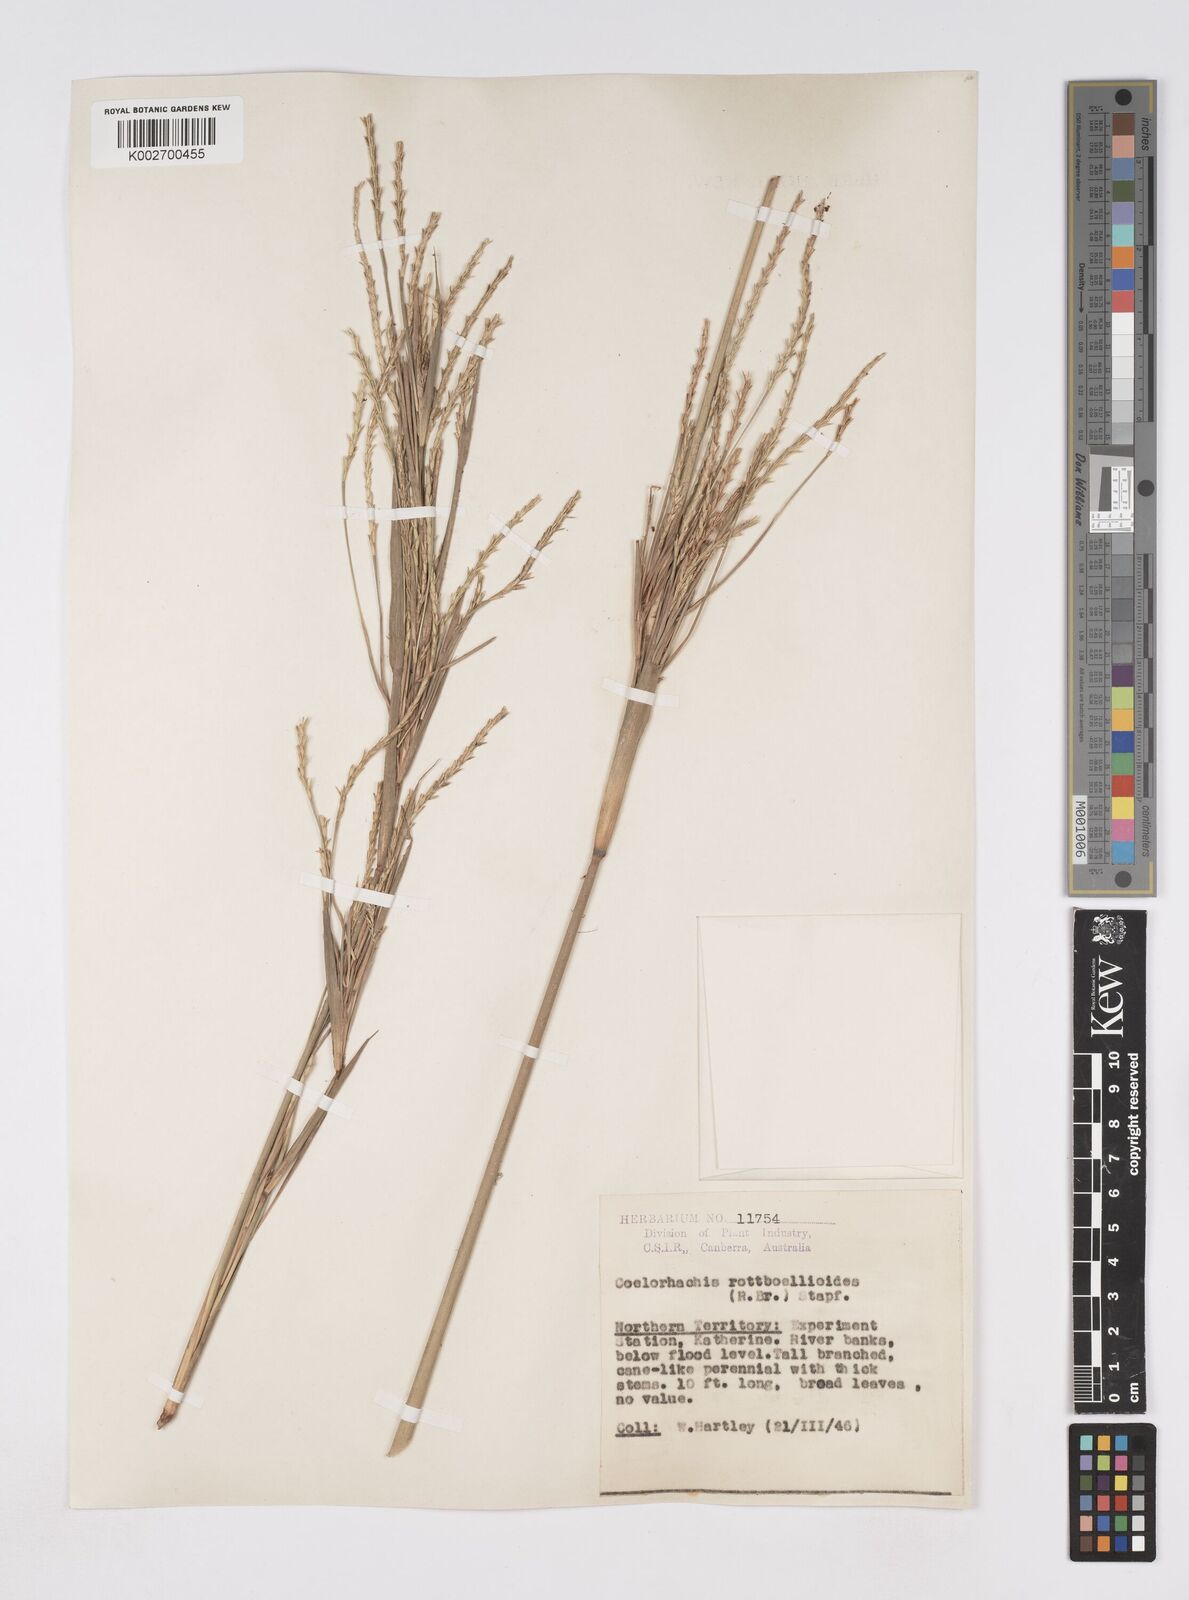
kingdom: Plantae
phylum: Tracheophyta
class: Liliopsida
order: Poales
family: Poaceae
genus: Rottboellia
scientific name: Rottboellia rottboellioides
